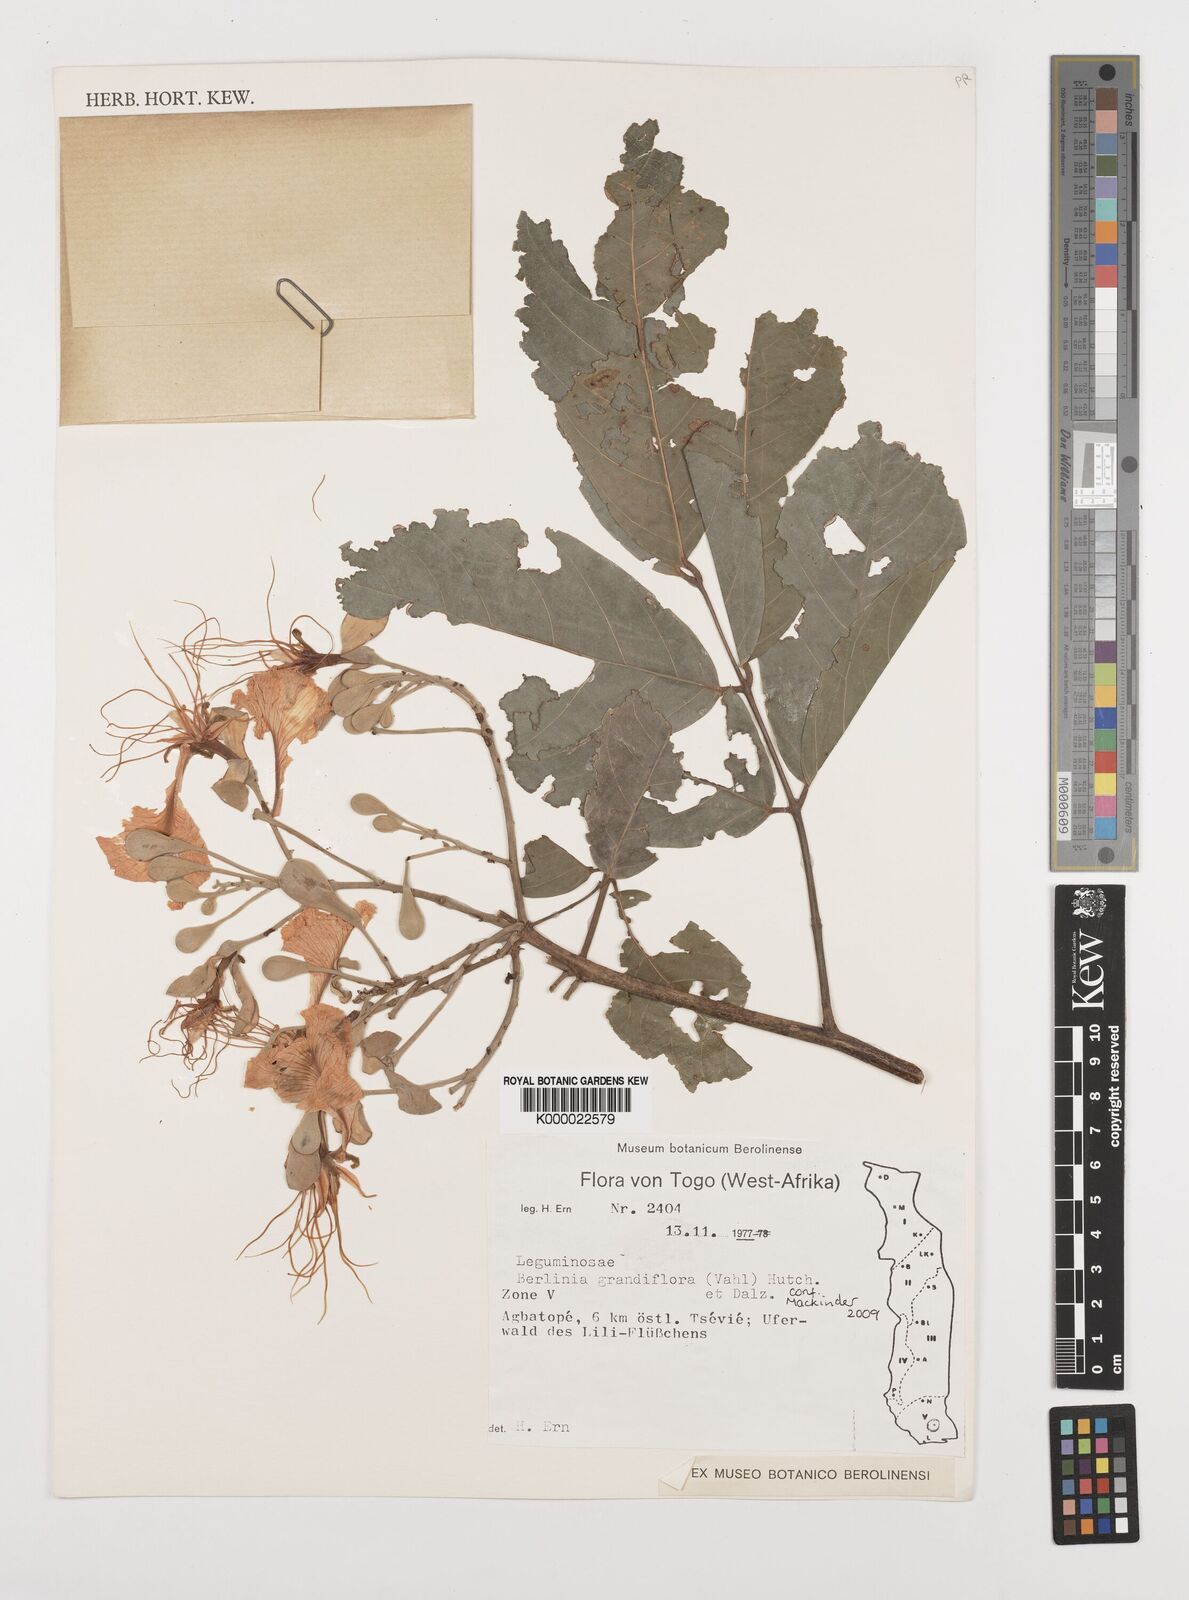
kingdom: Plantae
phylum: Tracheophyta
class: Magnoliopsida
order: Fabales
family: Fabaceae
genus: Berlinia
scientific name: Berlinia grandiflora
